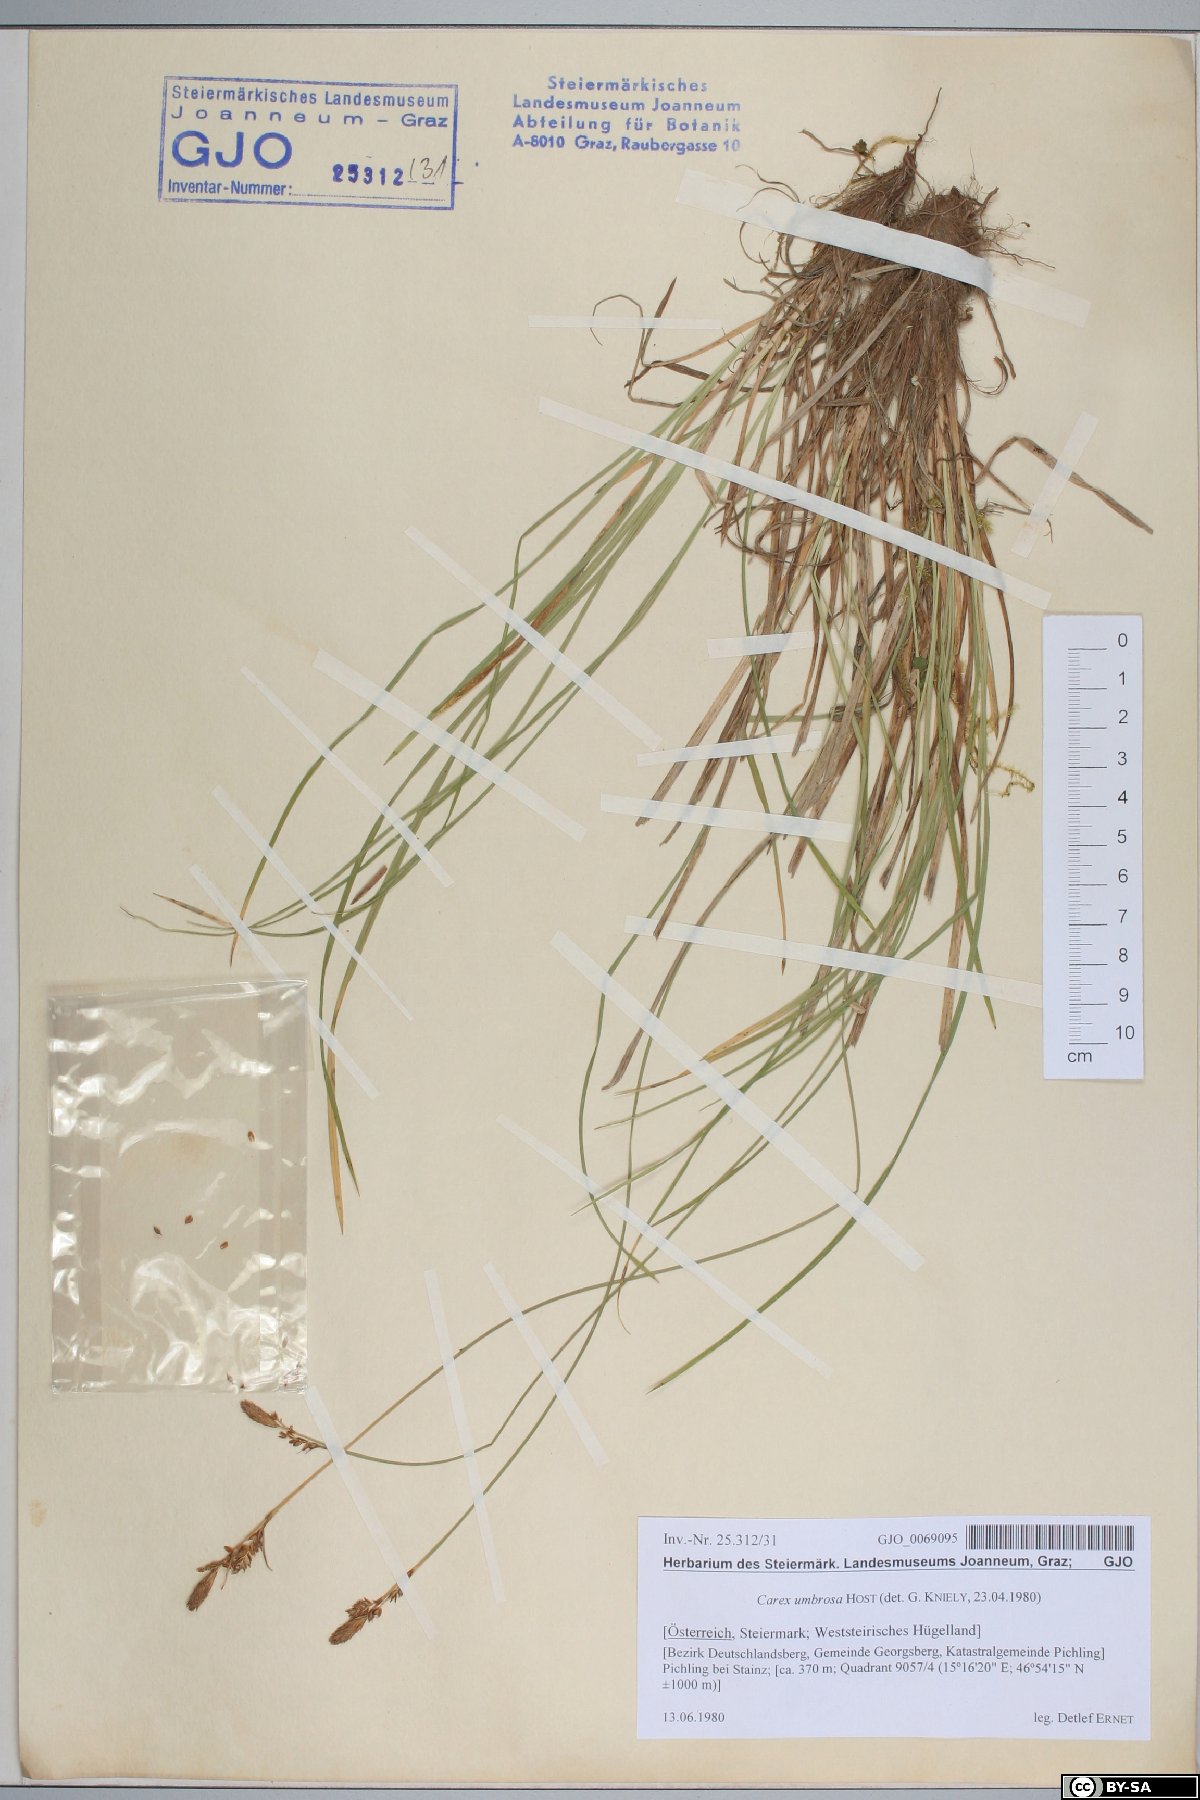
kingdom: Plantae
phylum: Tracheophyta
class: Liliopsida
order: Poales
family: Cyperaceae
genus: Carex
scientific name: Carex umbrosa
